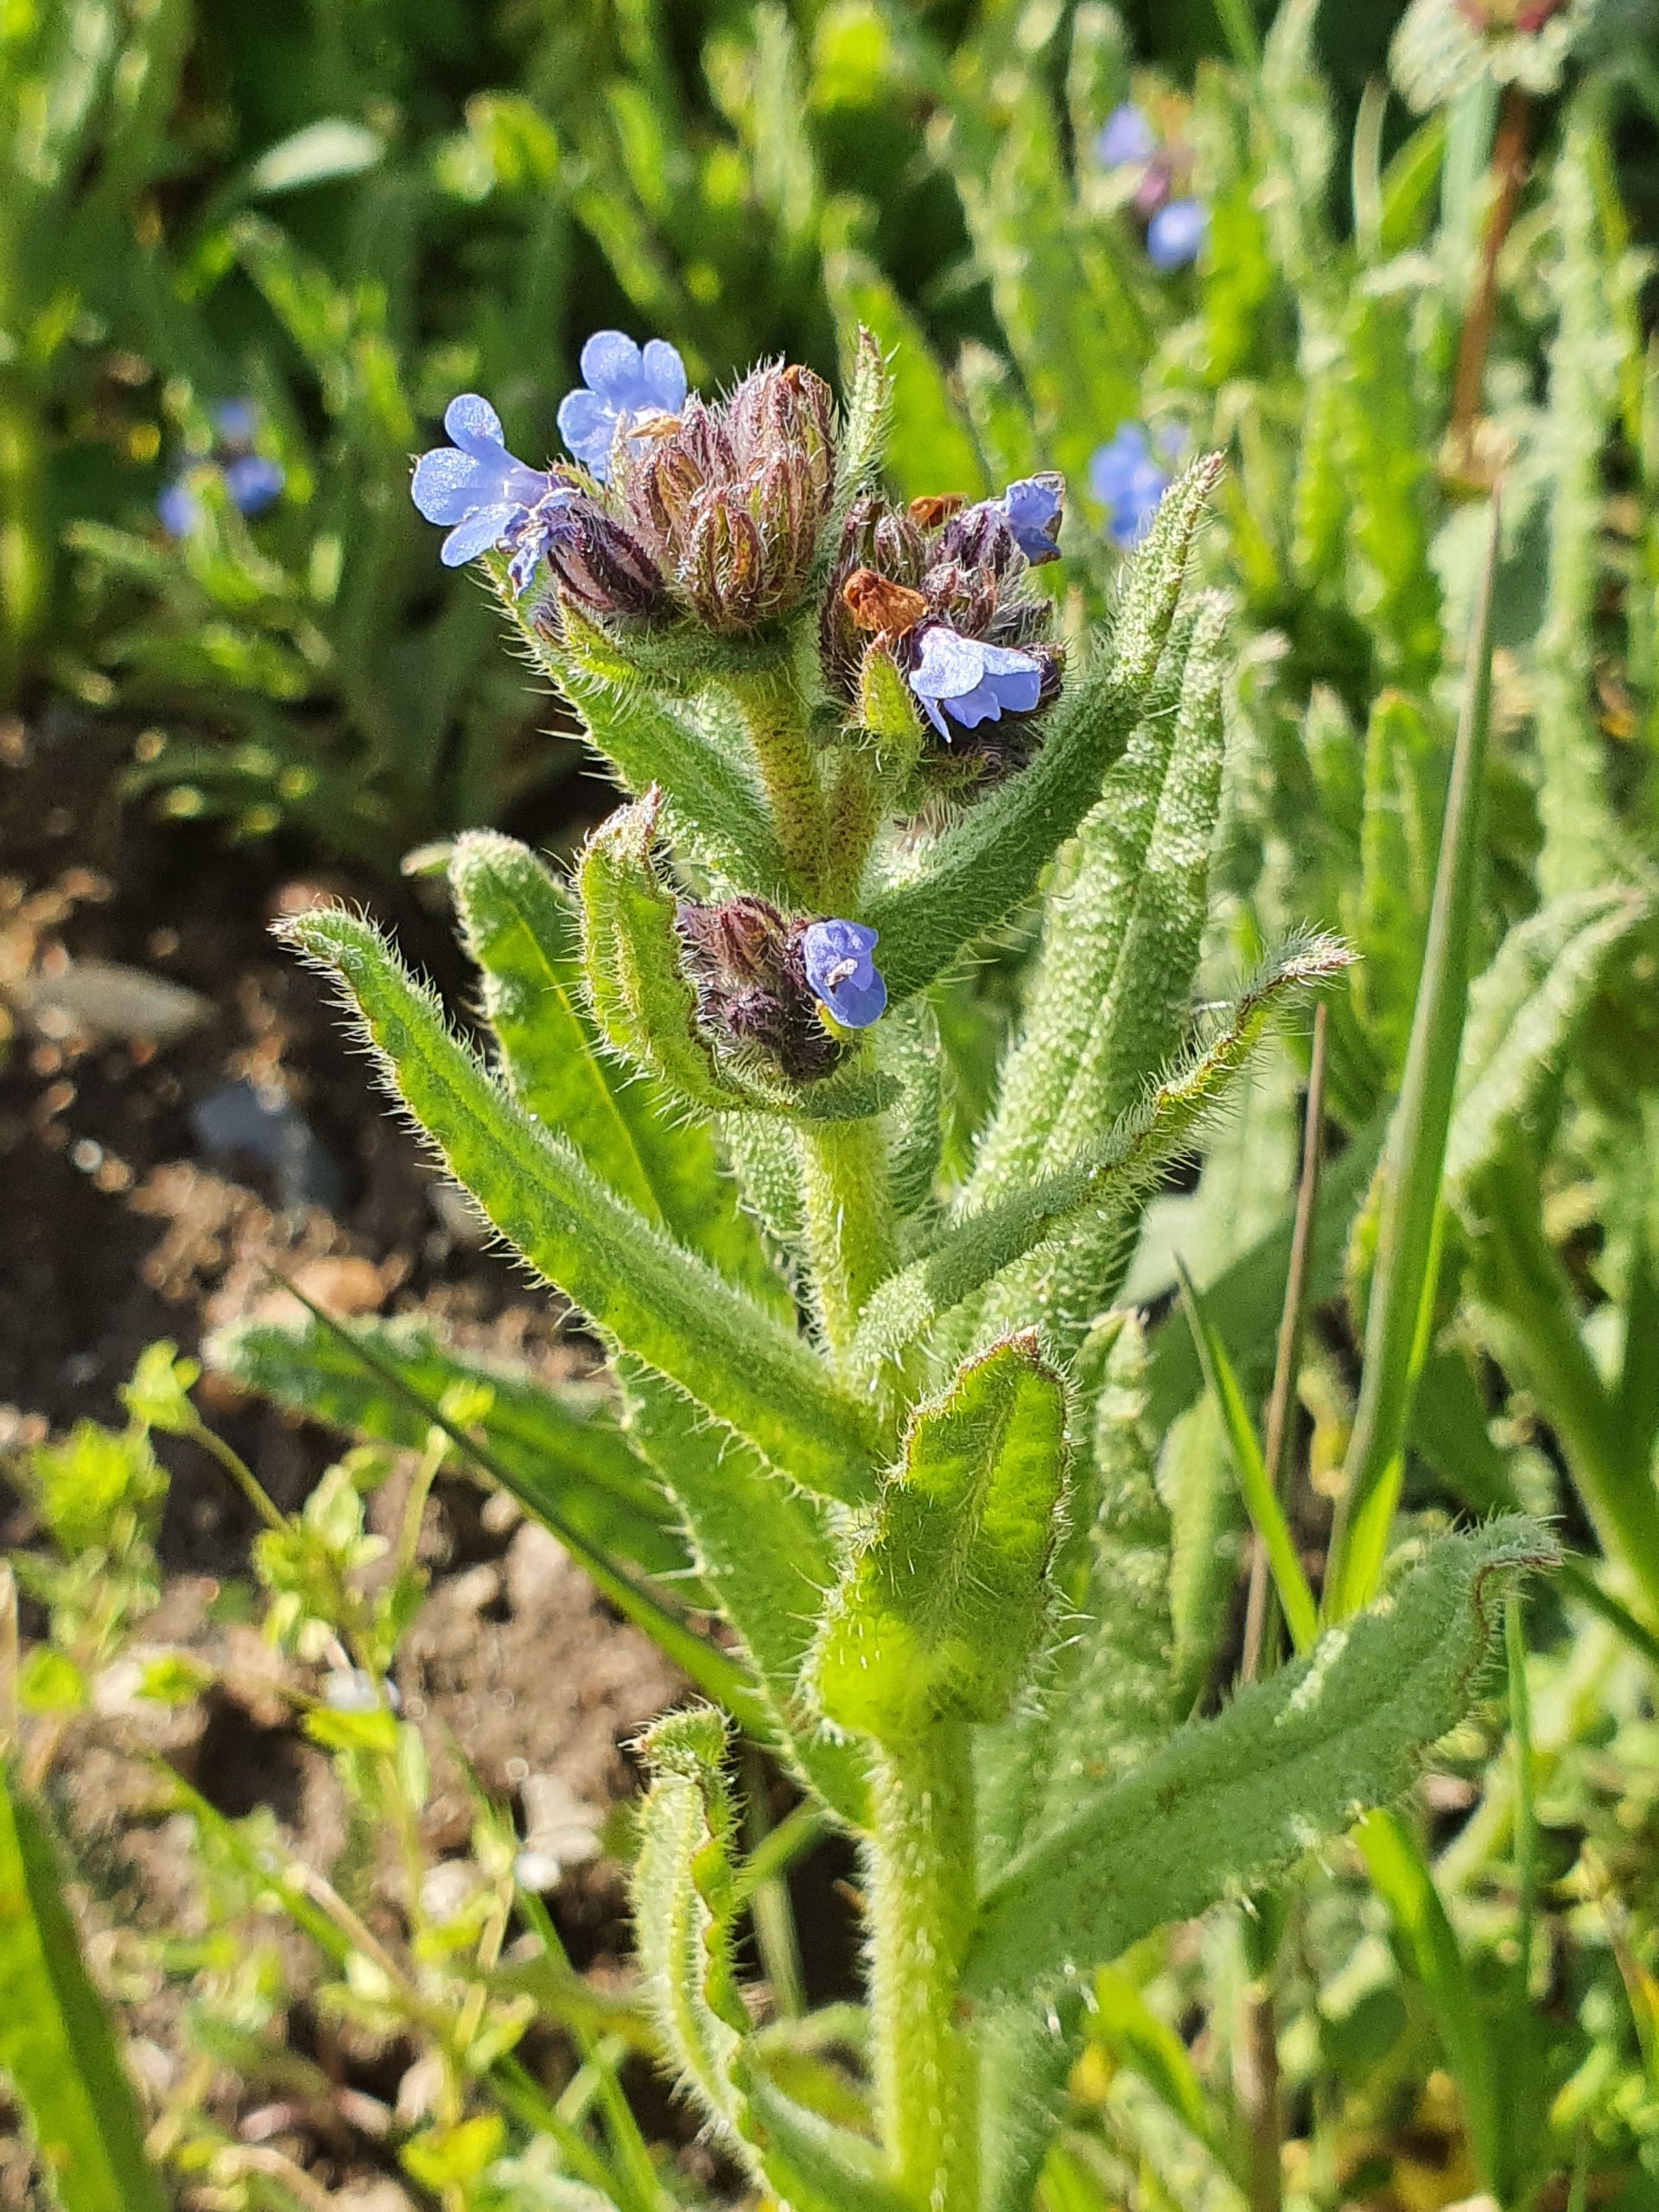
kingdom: Plantae
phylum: Tracheophyta
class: Magnoliopsida
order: Boraginales
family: Boraginaceae
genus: Lycopsis
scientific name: Lycopsis arvensis
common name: Krumhals
